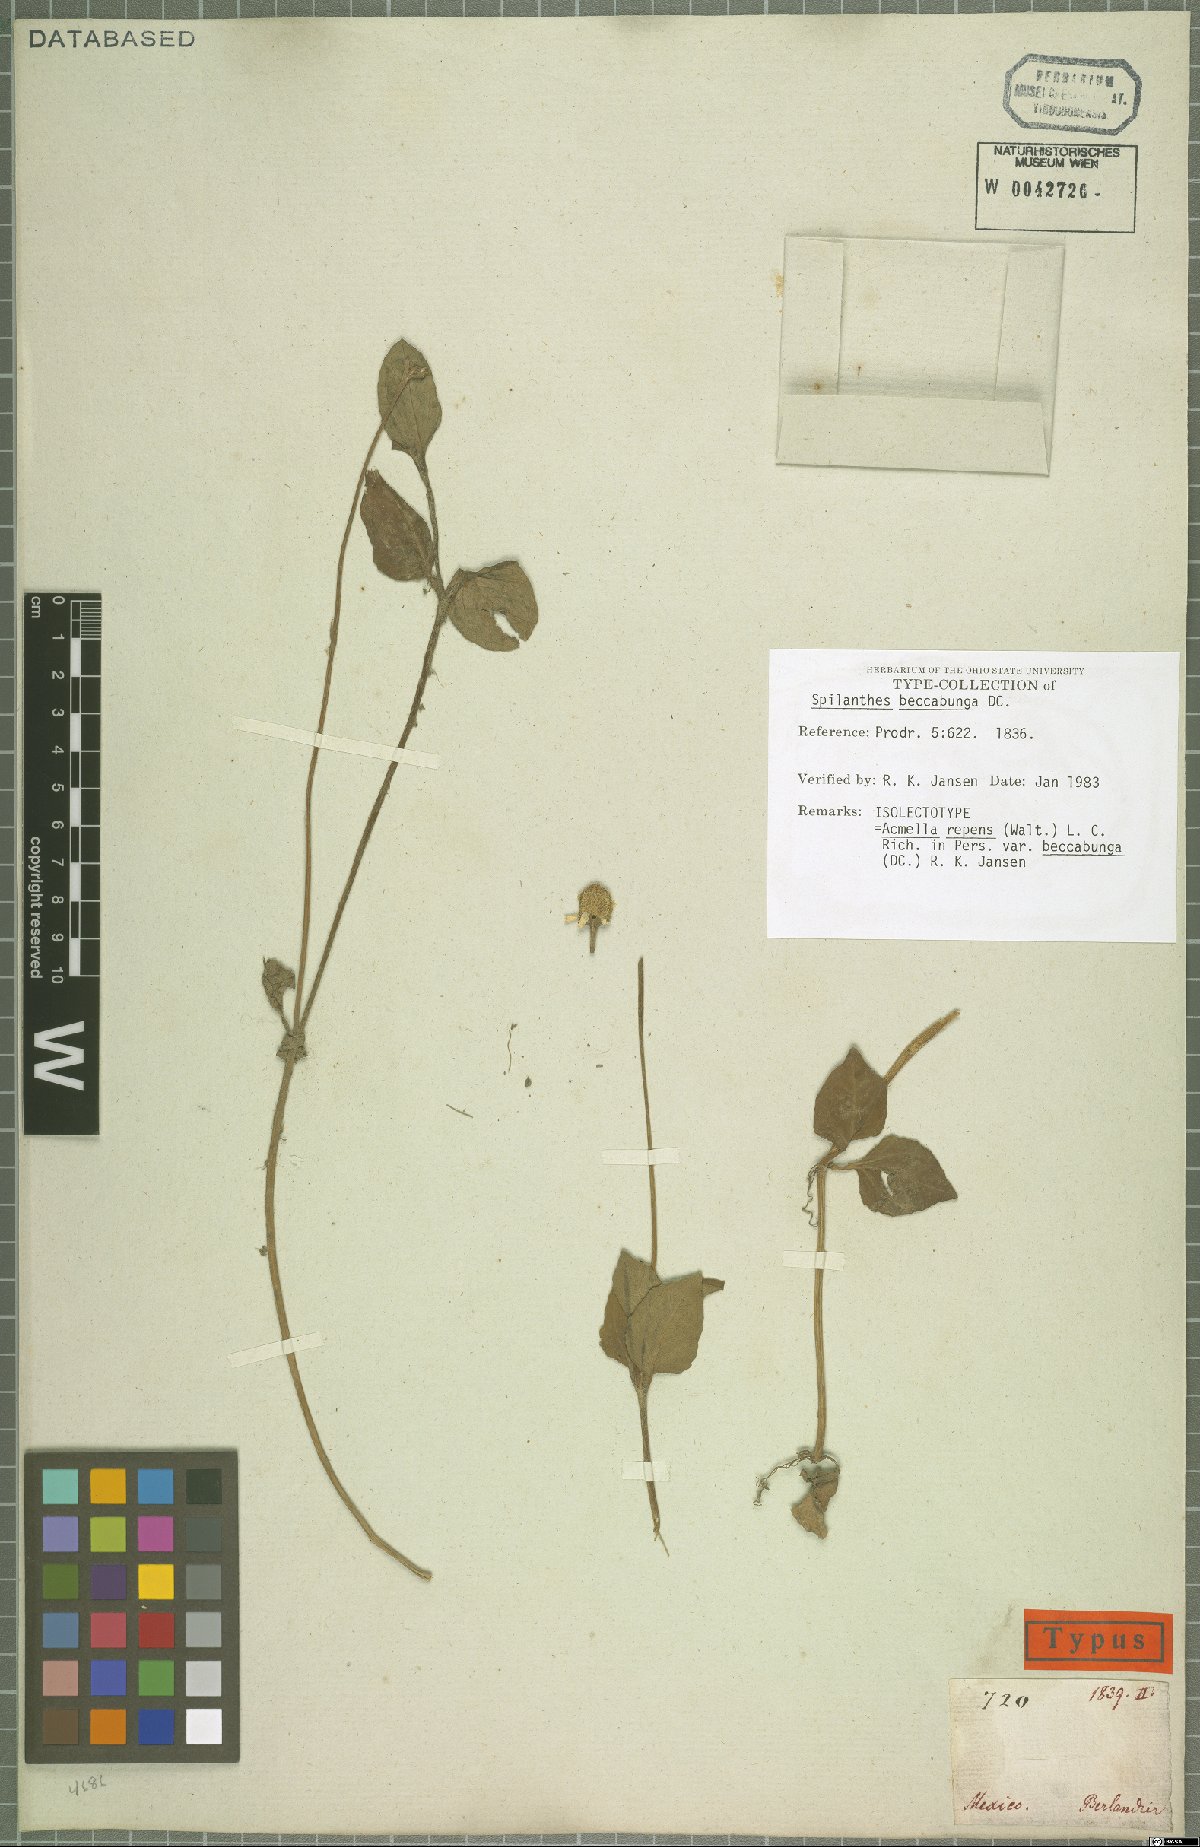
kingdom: Plantae
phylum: Tracheophyta
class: Magnoliopsida
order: Asterales
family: Asteraceae
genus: Acmella
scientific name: Acmella repens
